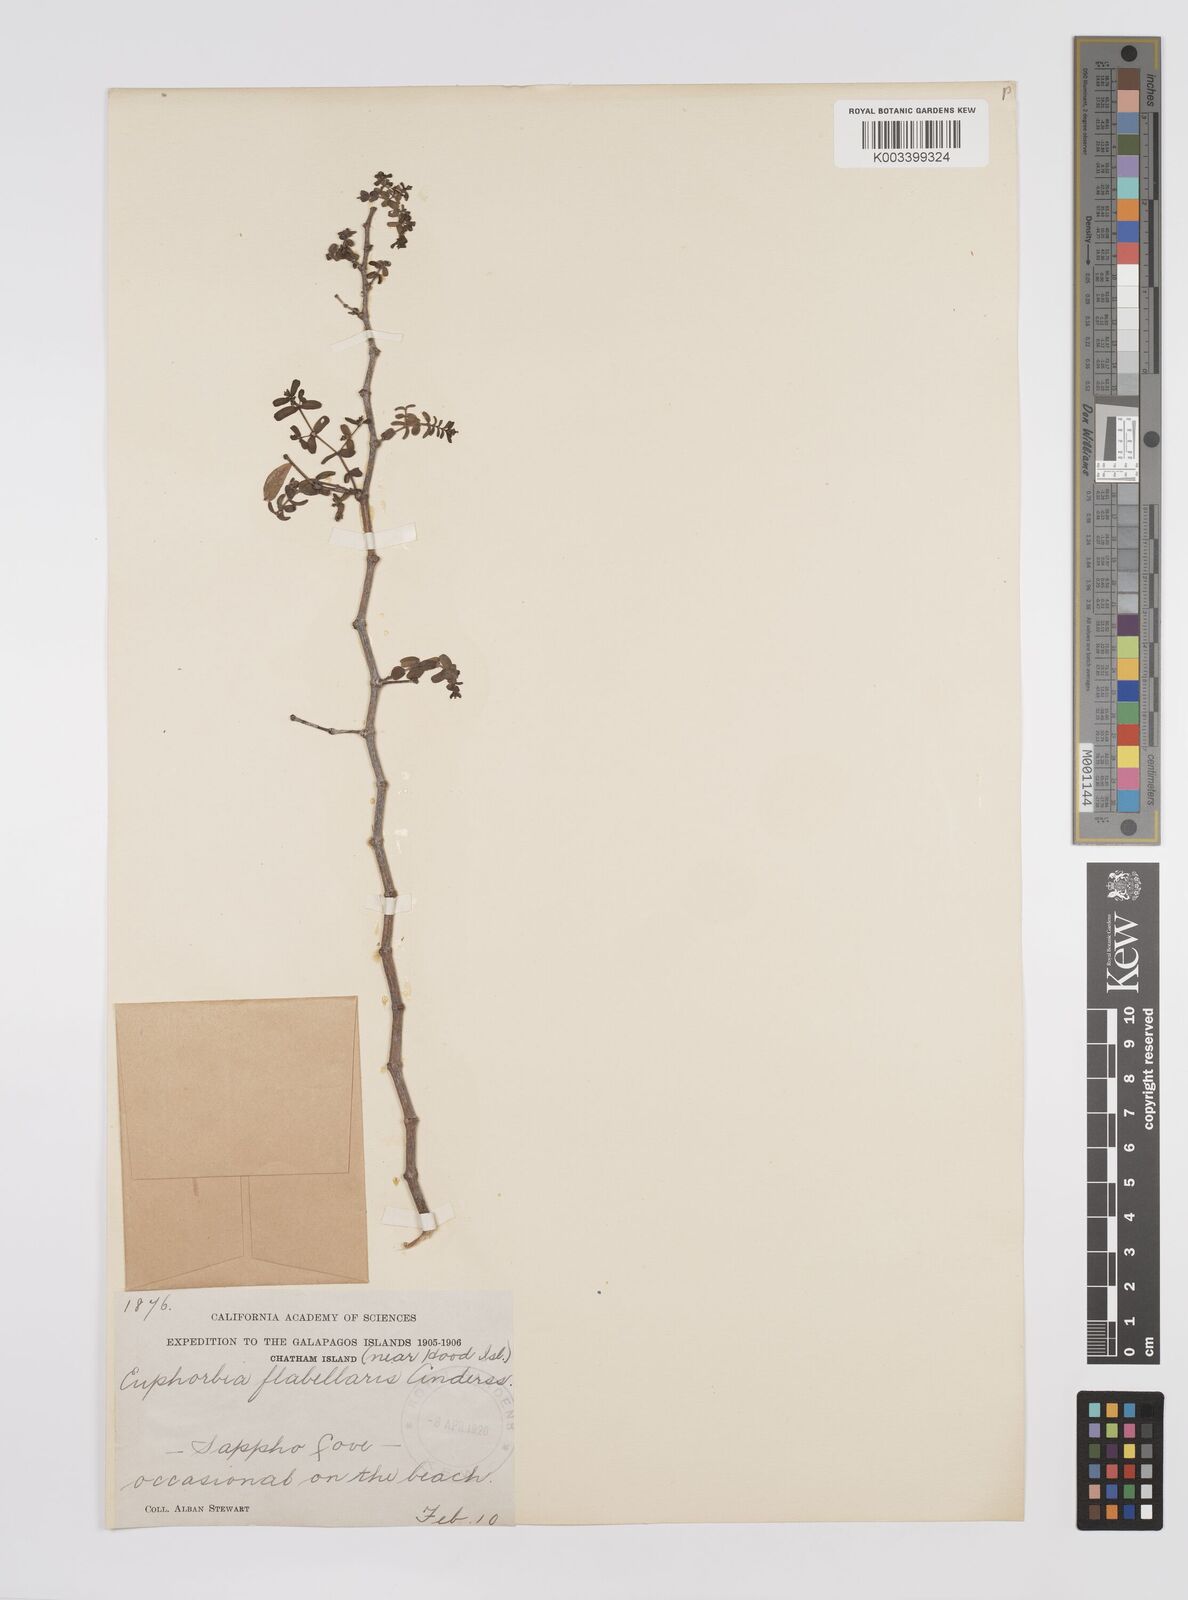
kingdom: Plantae
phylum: Tracheophyta
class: Magnoliopsida
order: Malpighiales
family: Euphorbiaceae
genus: Euphorbia
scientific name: Euphorbia recurva
